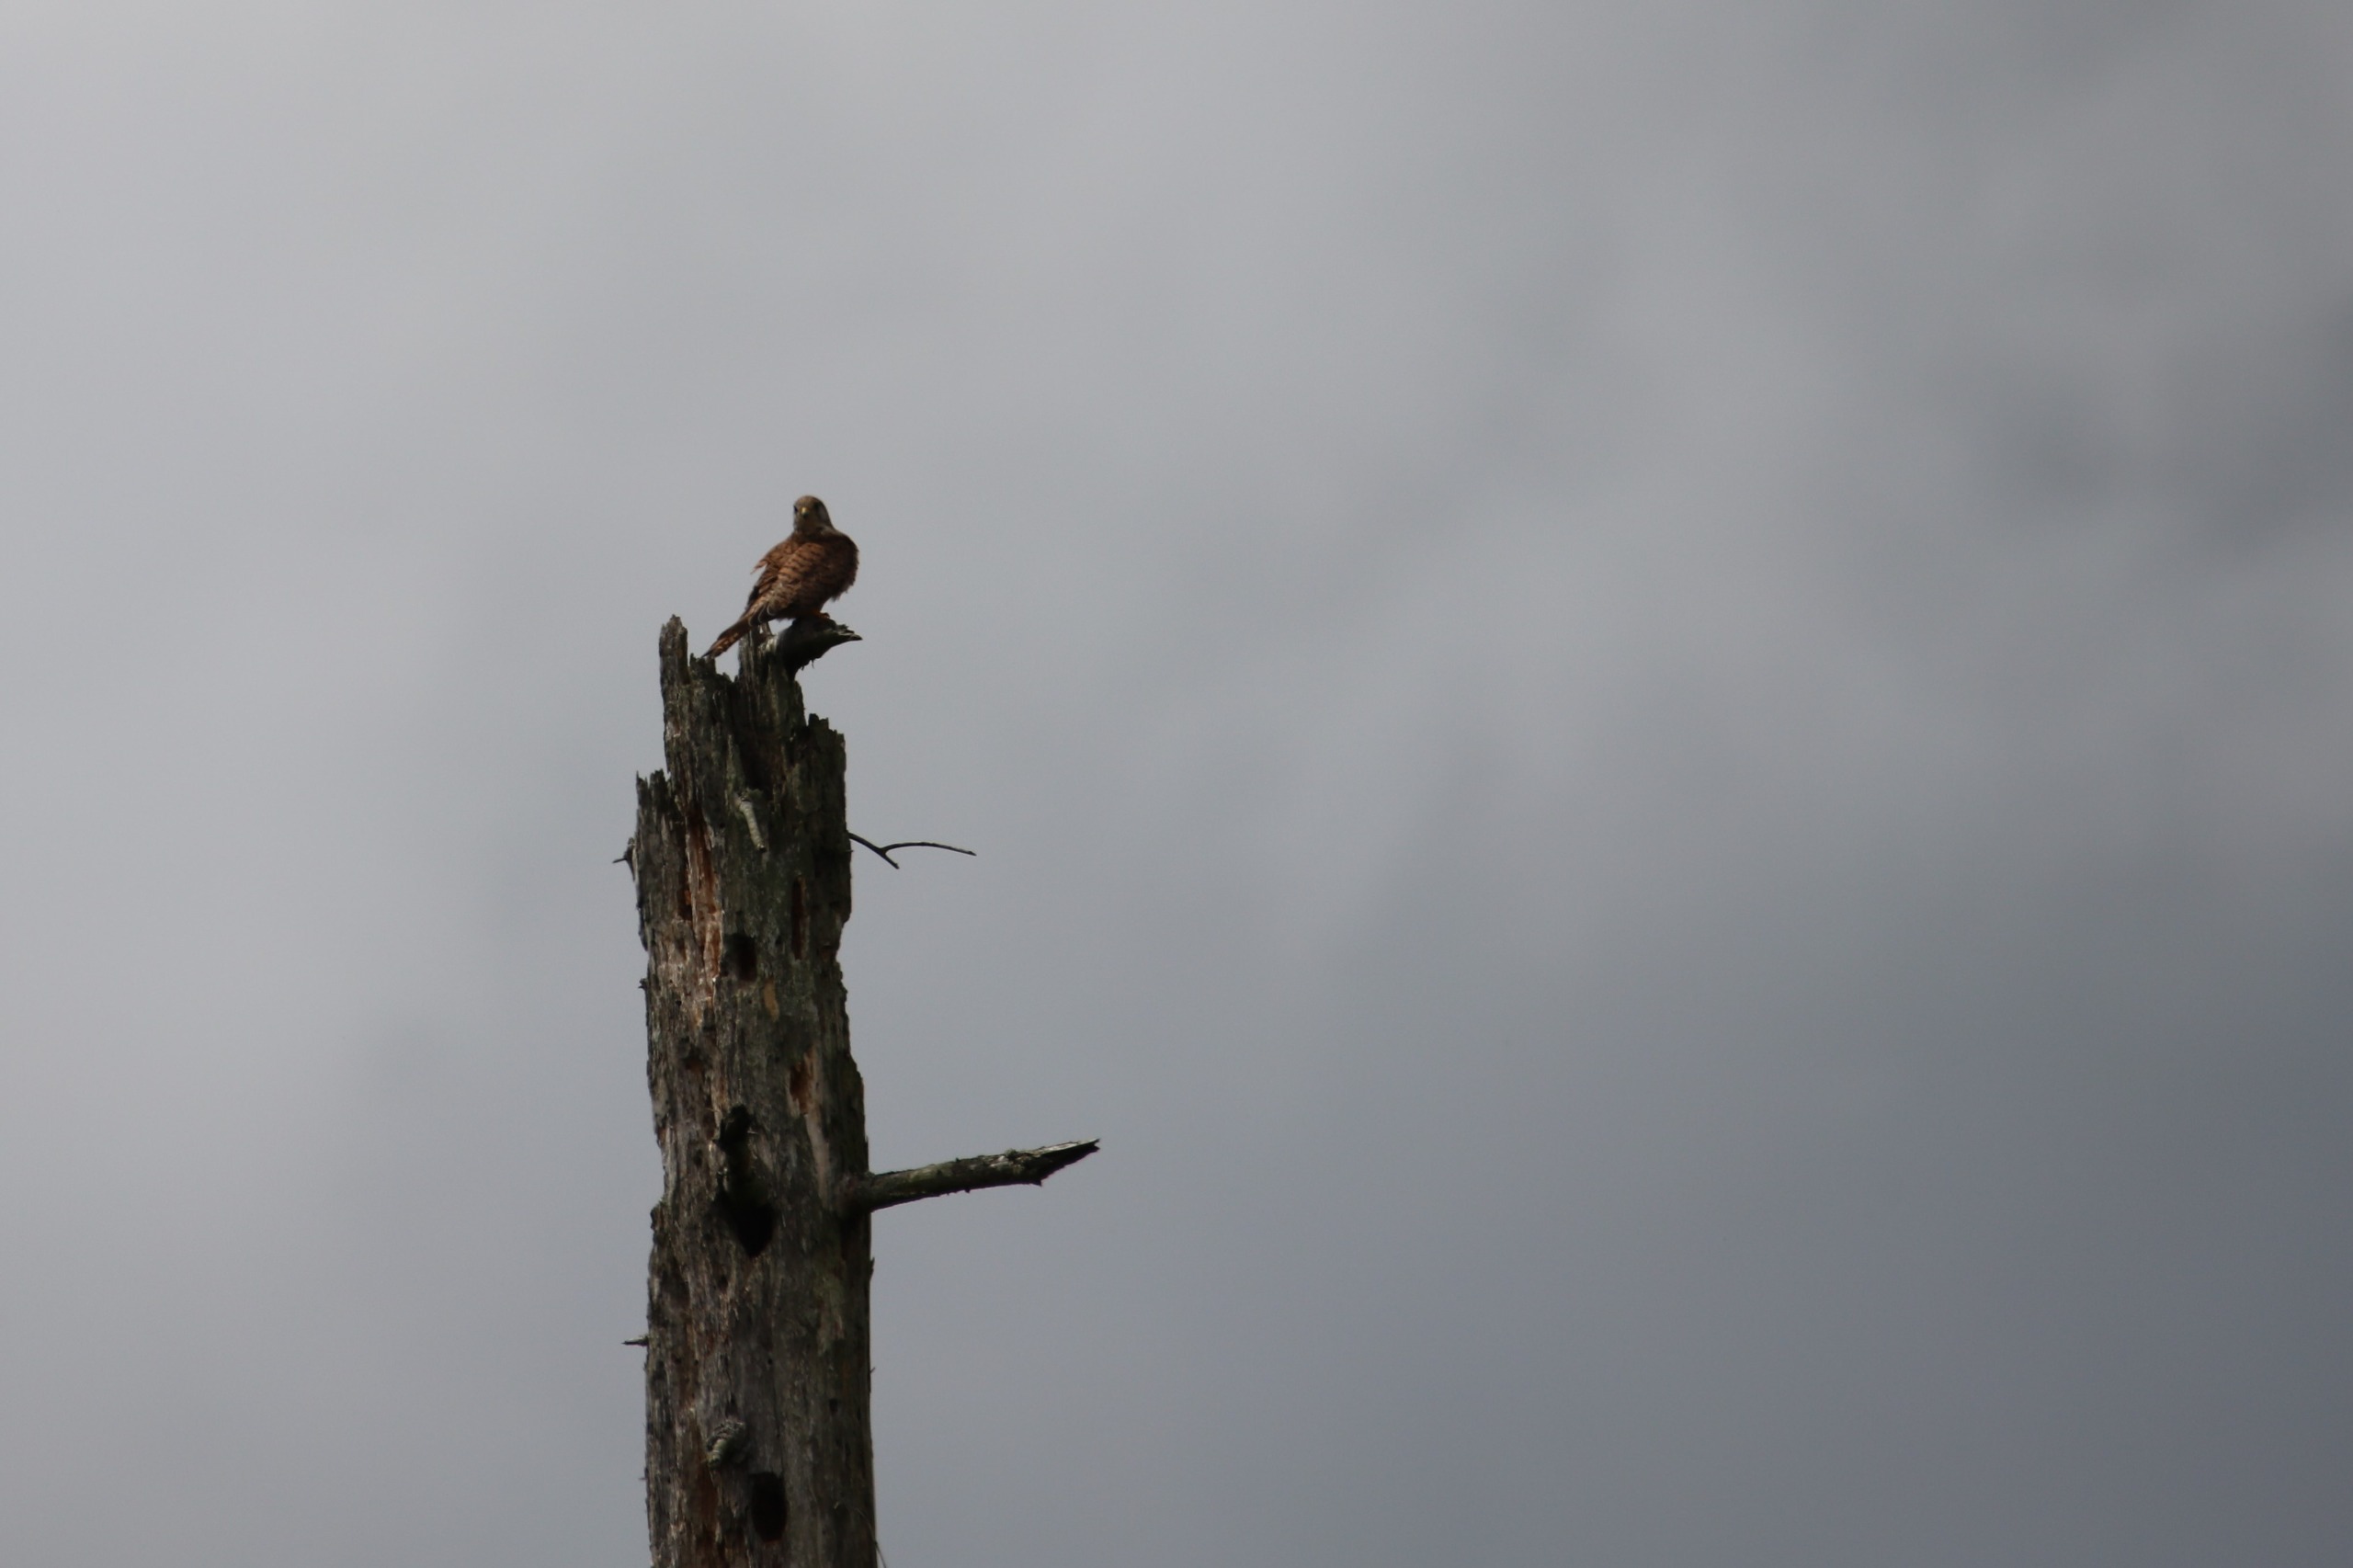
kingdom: Animalia
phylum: Chordata
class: Aves
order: Falconiformes
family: Falconidae
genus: Falco
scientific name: Falco tinnunculus
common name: Tårnfalk
